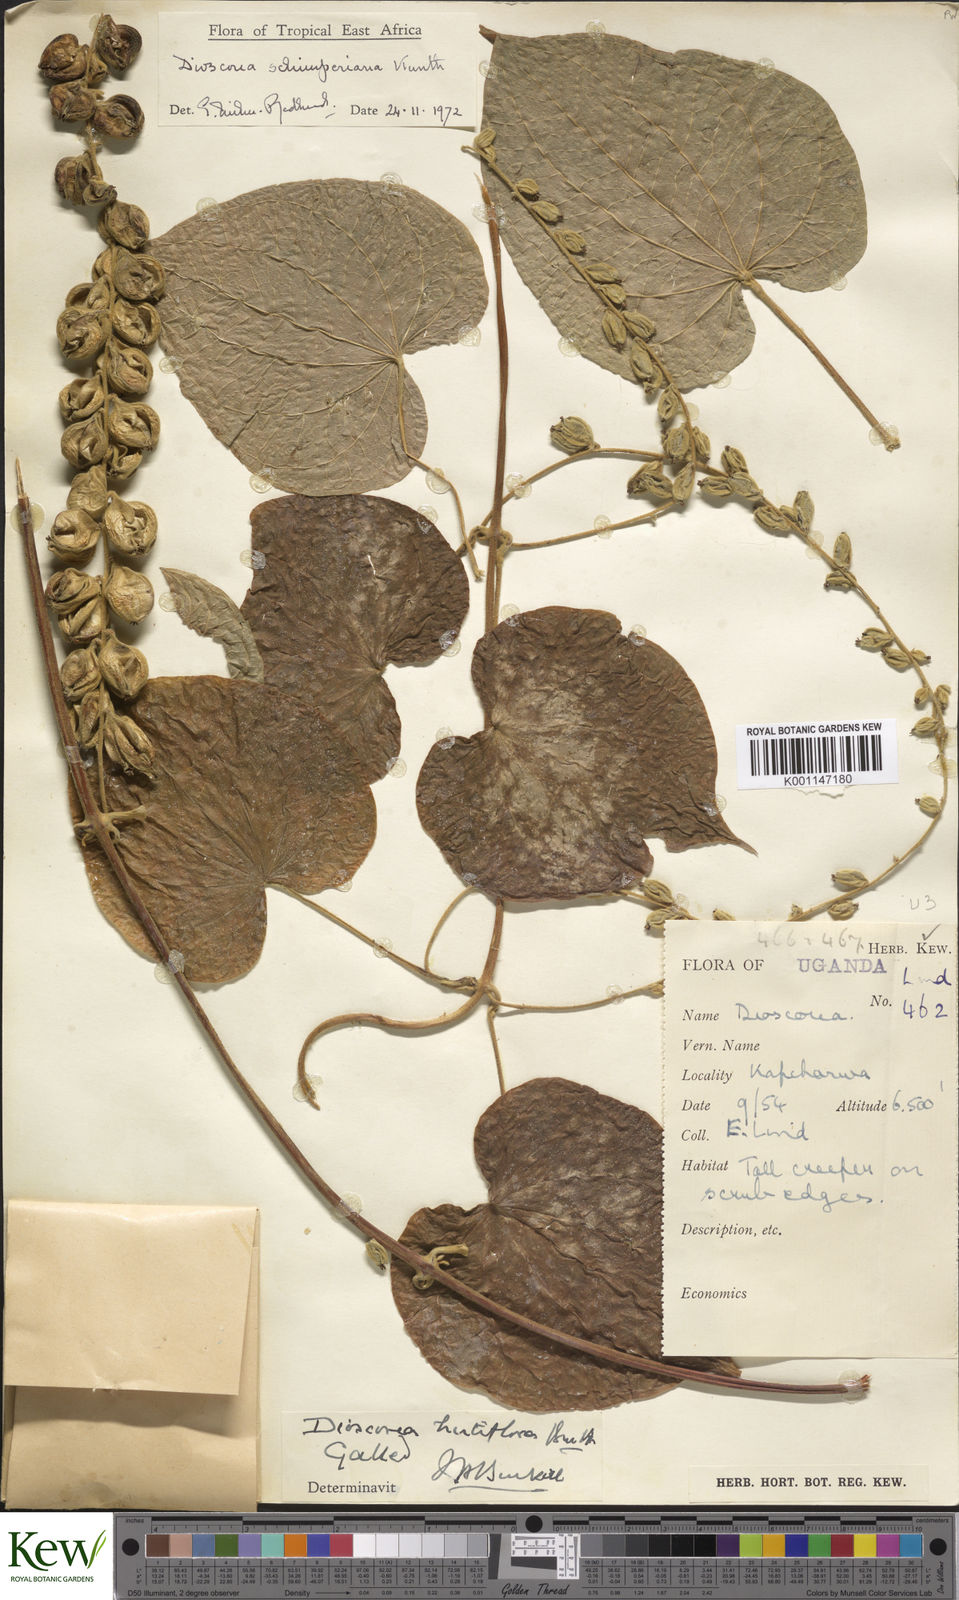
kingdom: Plantae
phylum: Tracheophyta
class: Liliopsida
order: Dioscoreales
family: Dioscoreaceae
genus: Dioscorea
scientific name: Dioscorea schimperiana
